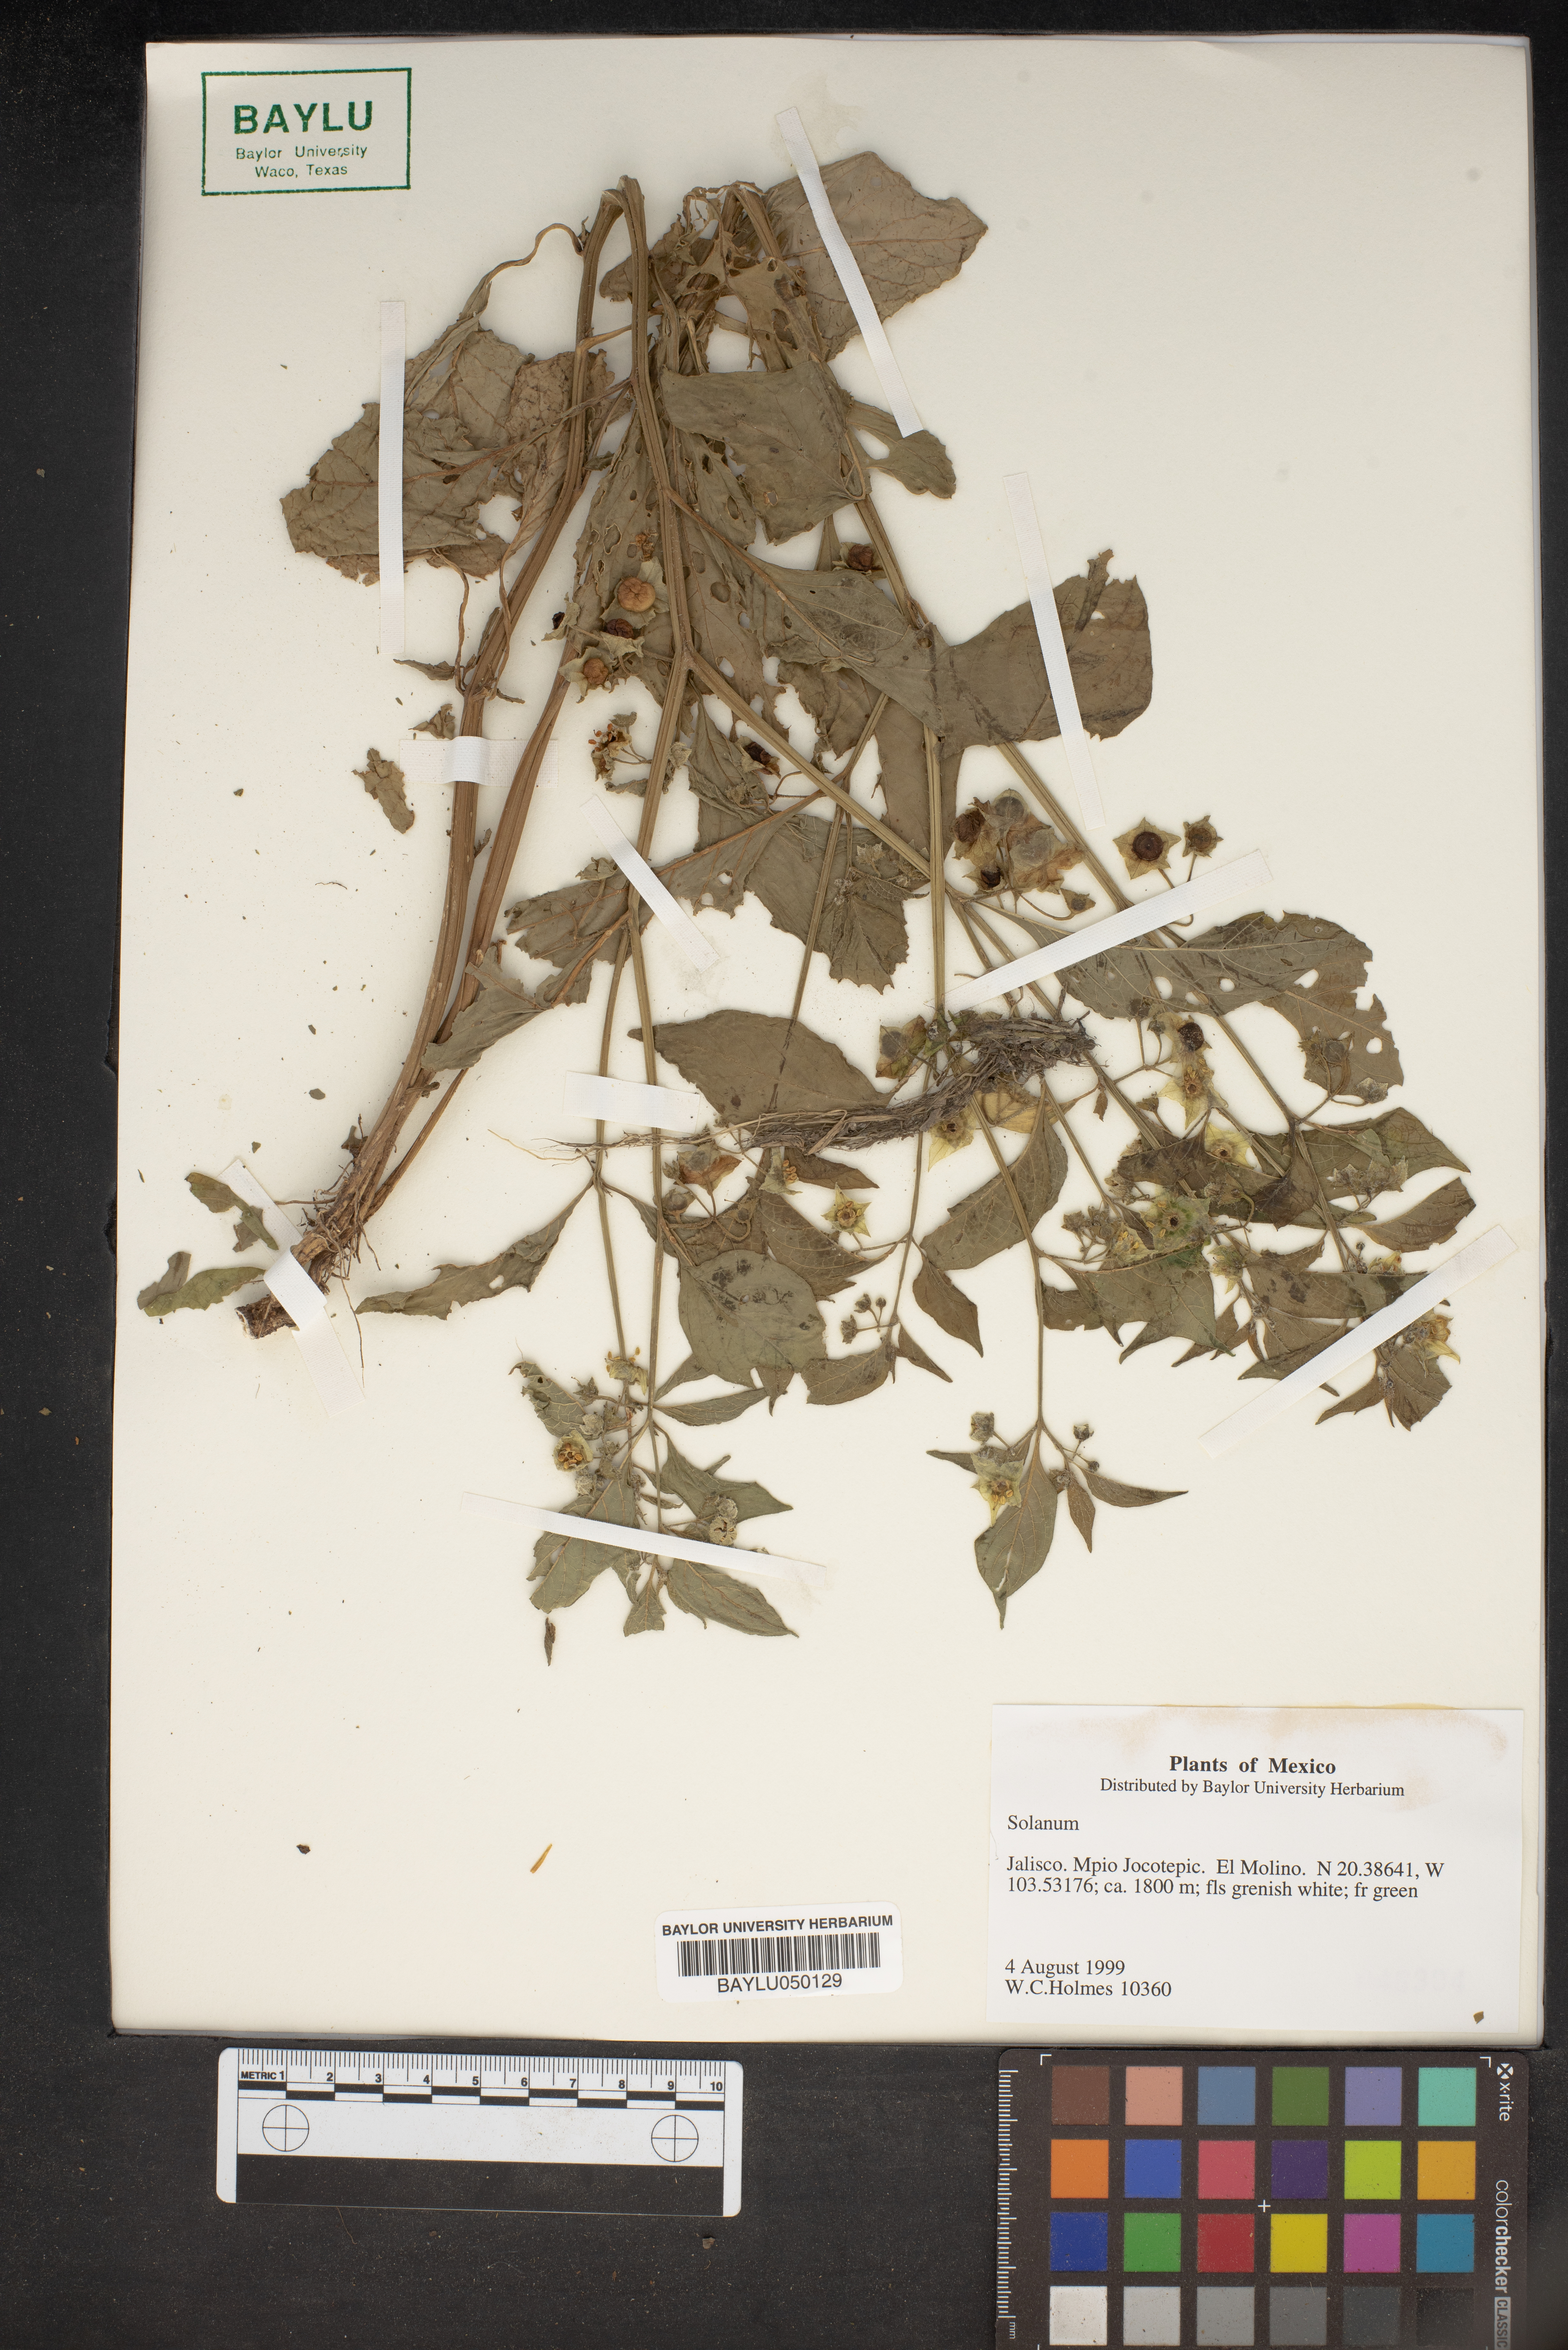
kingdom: Plantae
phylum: Tracheophyta
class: Magnoliopsida
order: Solanales
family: Solanaceae
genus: Solanum
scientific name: Solanum
